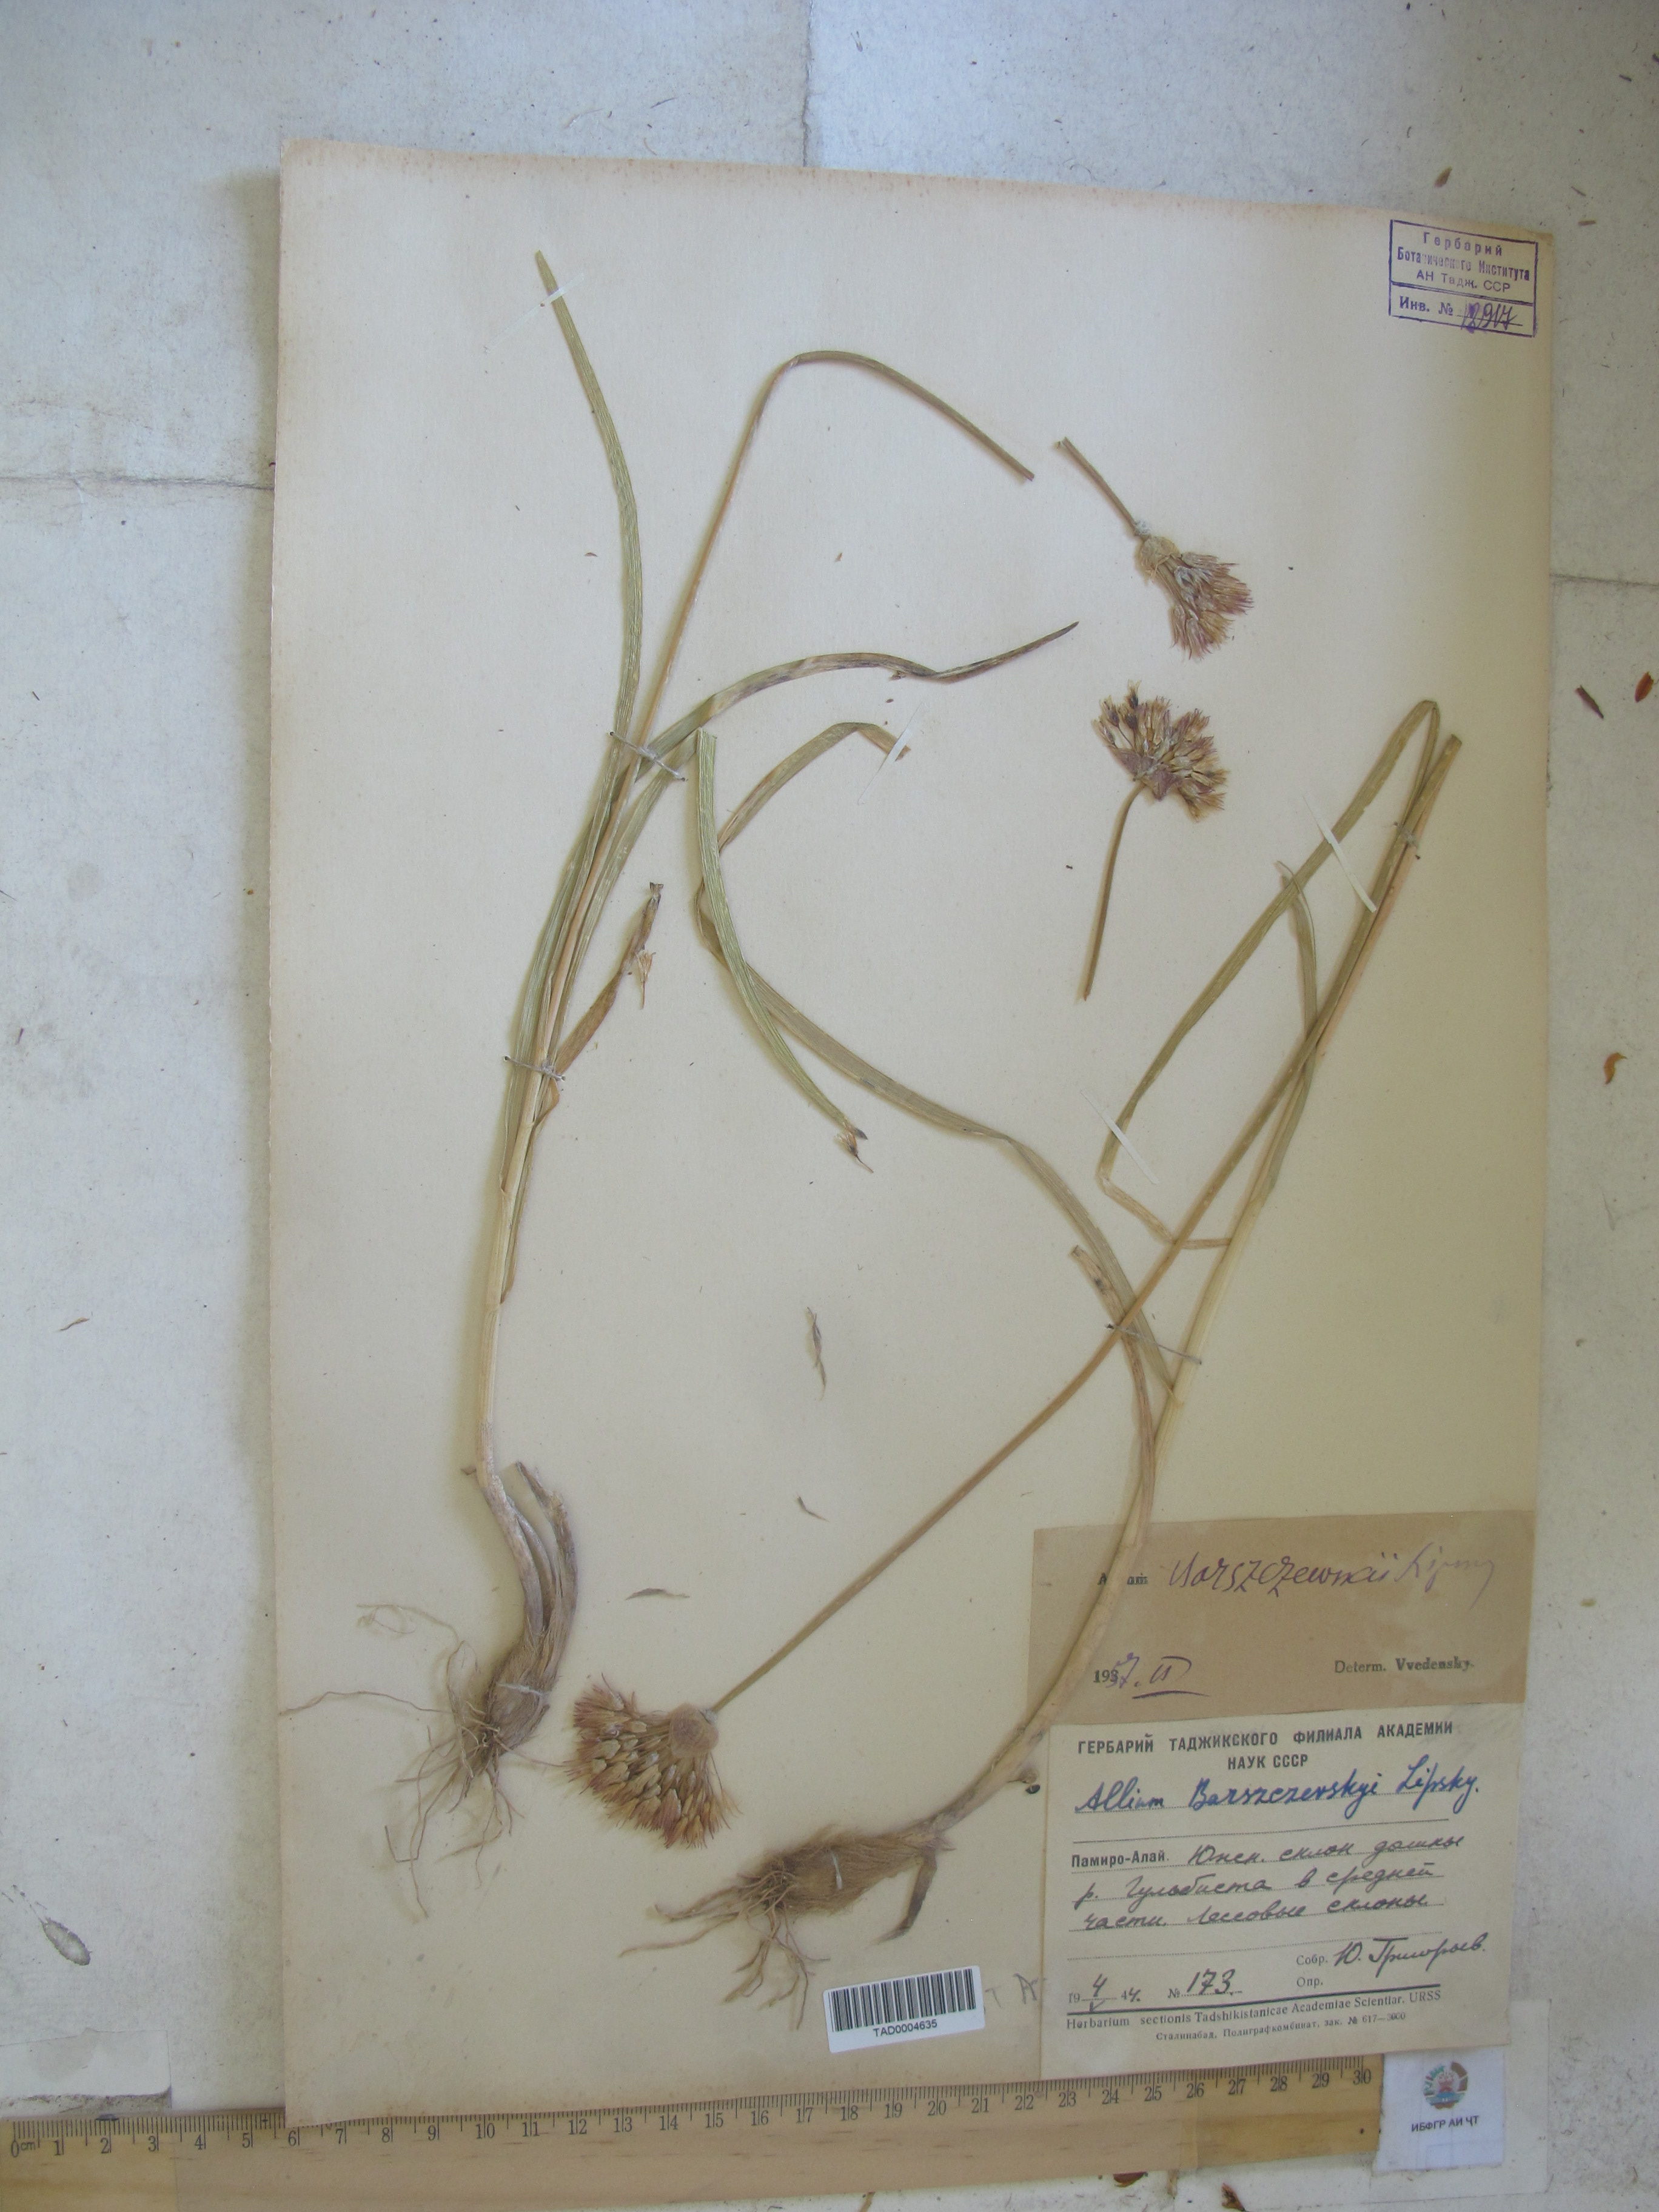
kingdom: Plantae
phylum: Tracheophyta
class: Liliopsida
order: Asparagales
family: Amaryllidaceae
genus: Allium
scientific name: Allium barsczewskii
